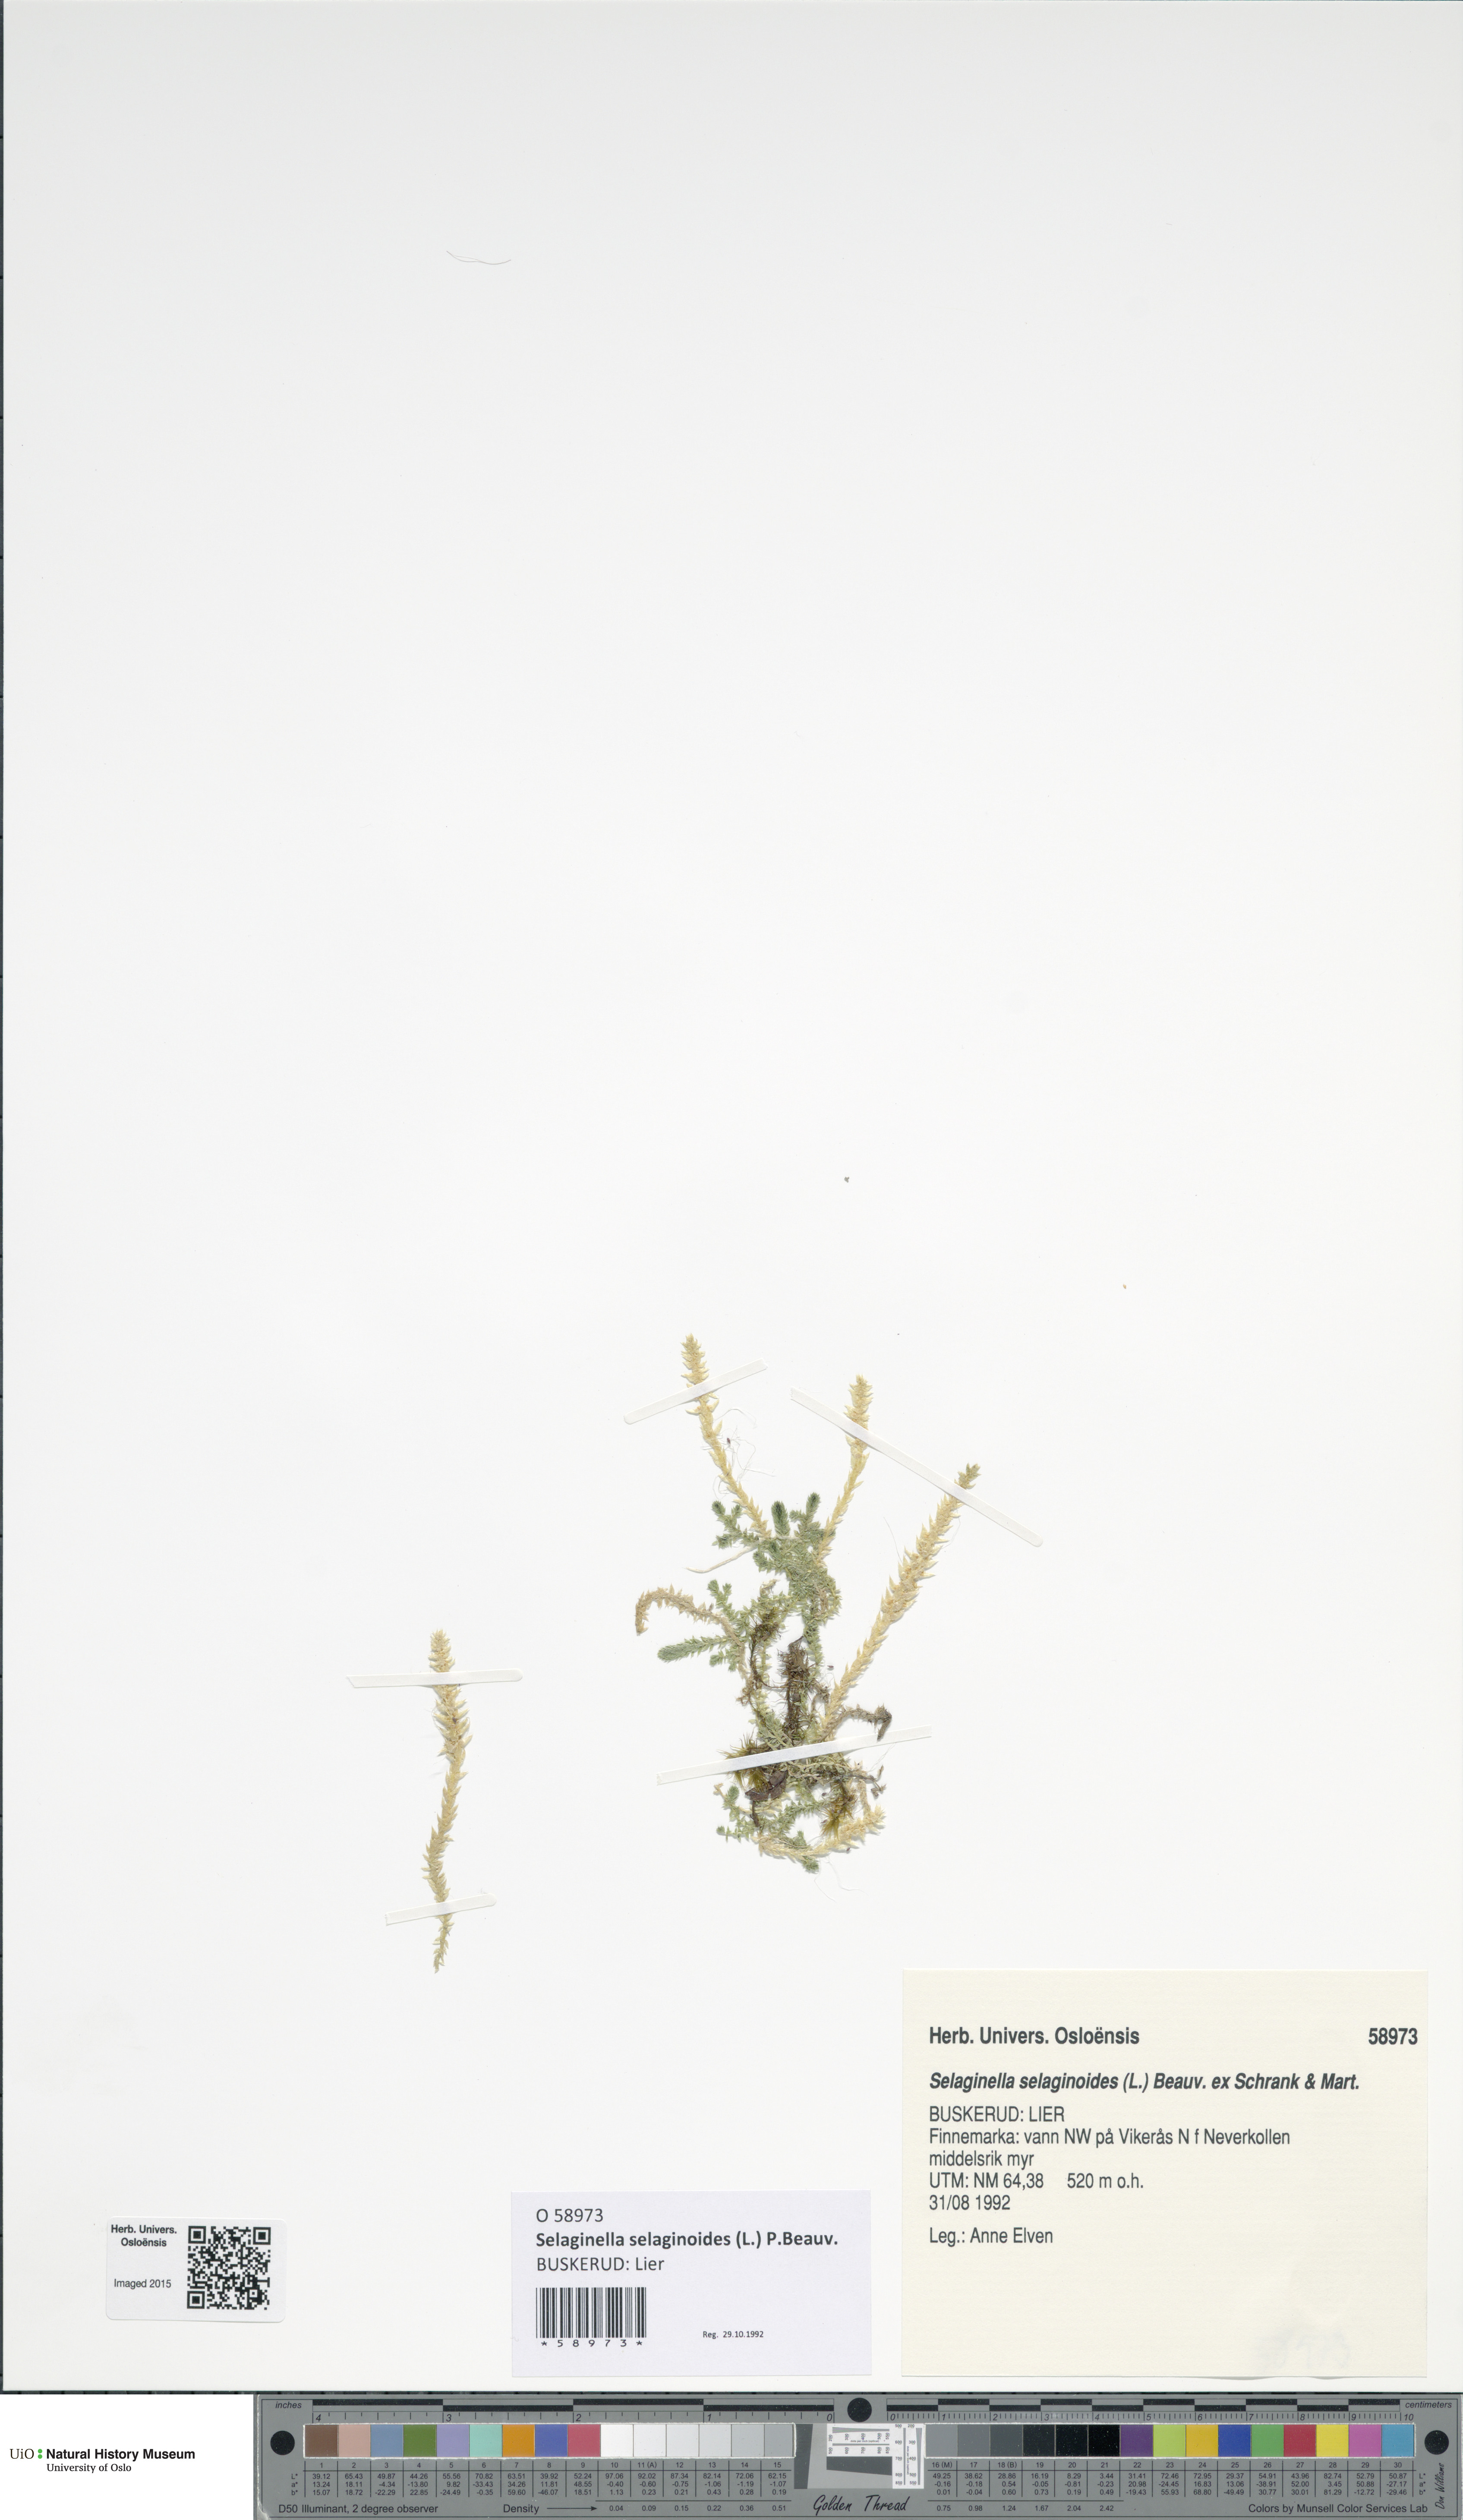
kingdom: Plantae
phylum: Tracheophyta
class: Lycopodiopsida
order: Selaginellales
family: Selaginellaceae
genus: Selaginella
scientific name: Selaginella selaginoides
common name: Prickly mountain-moss
